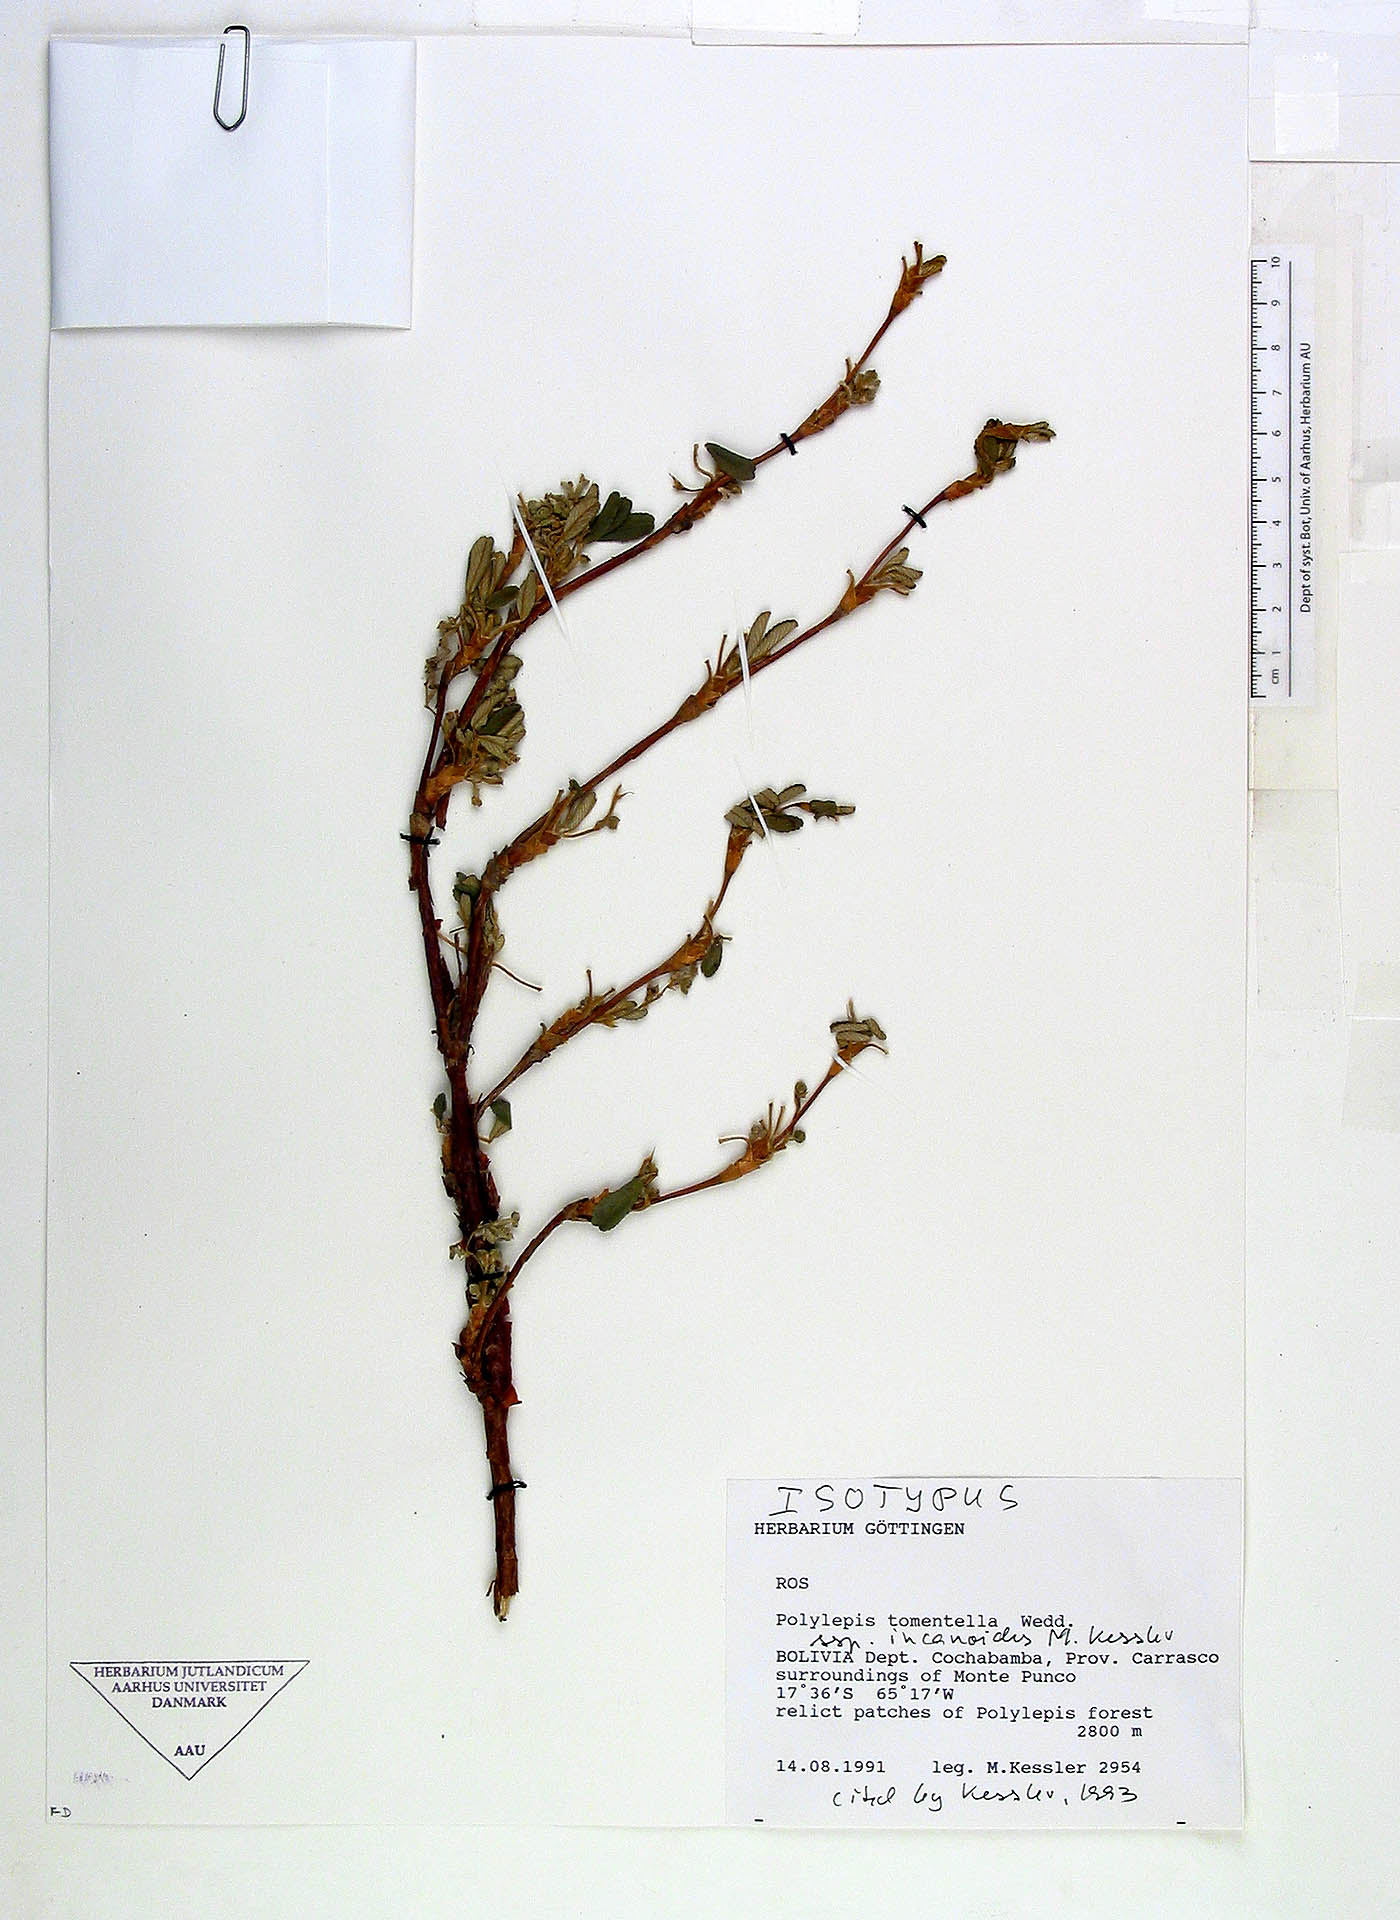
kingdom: Plantae
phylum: Tracheophyta
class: Magnoliopsida
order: Rosales
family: Rosaceae
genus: Polylepis
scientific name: Polylepis incanoides
